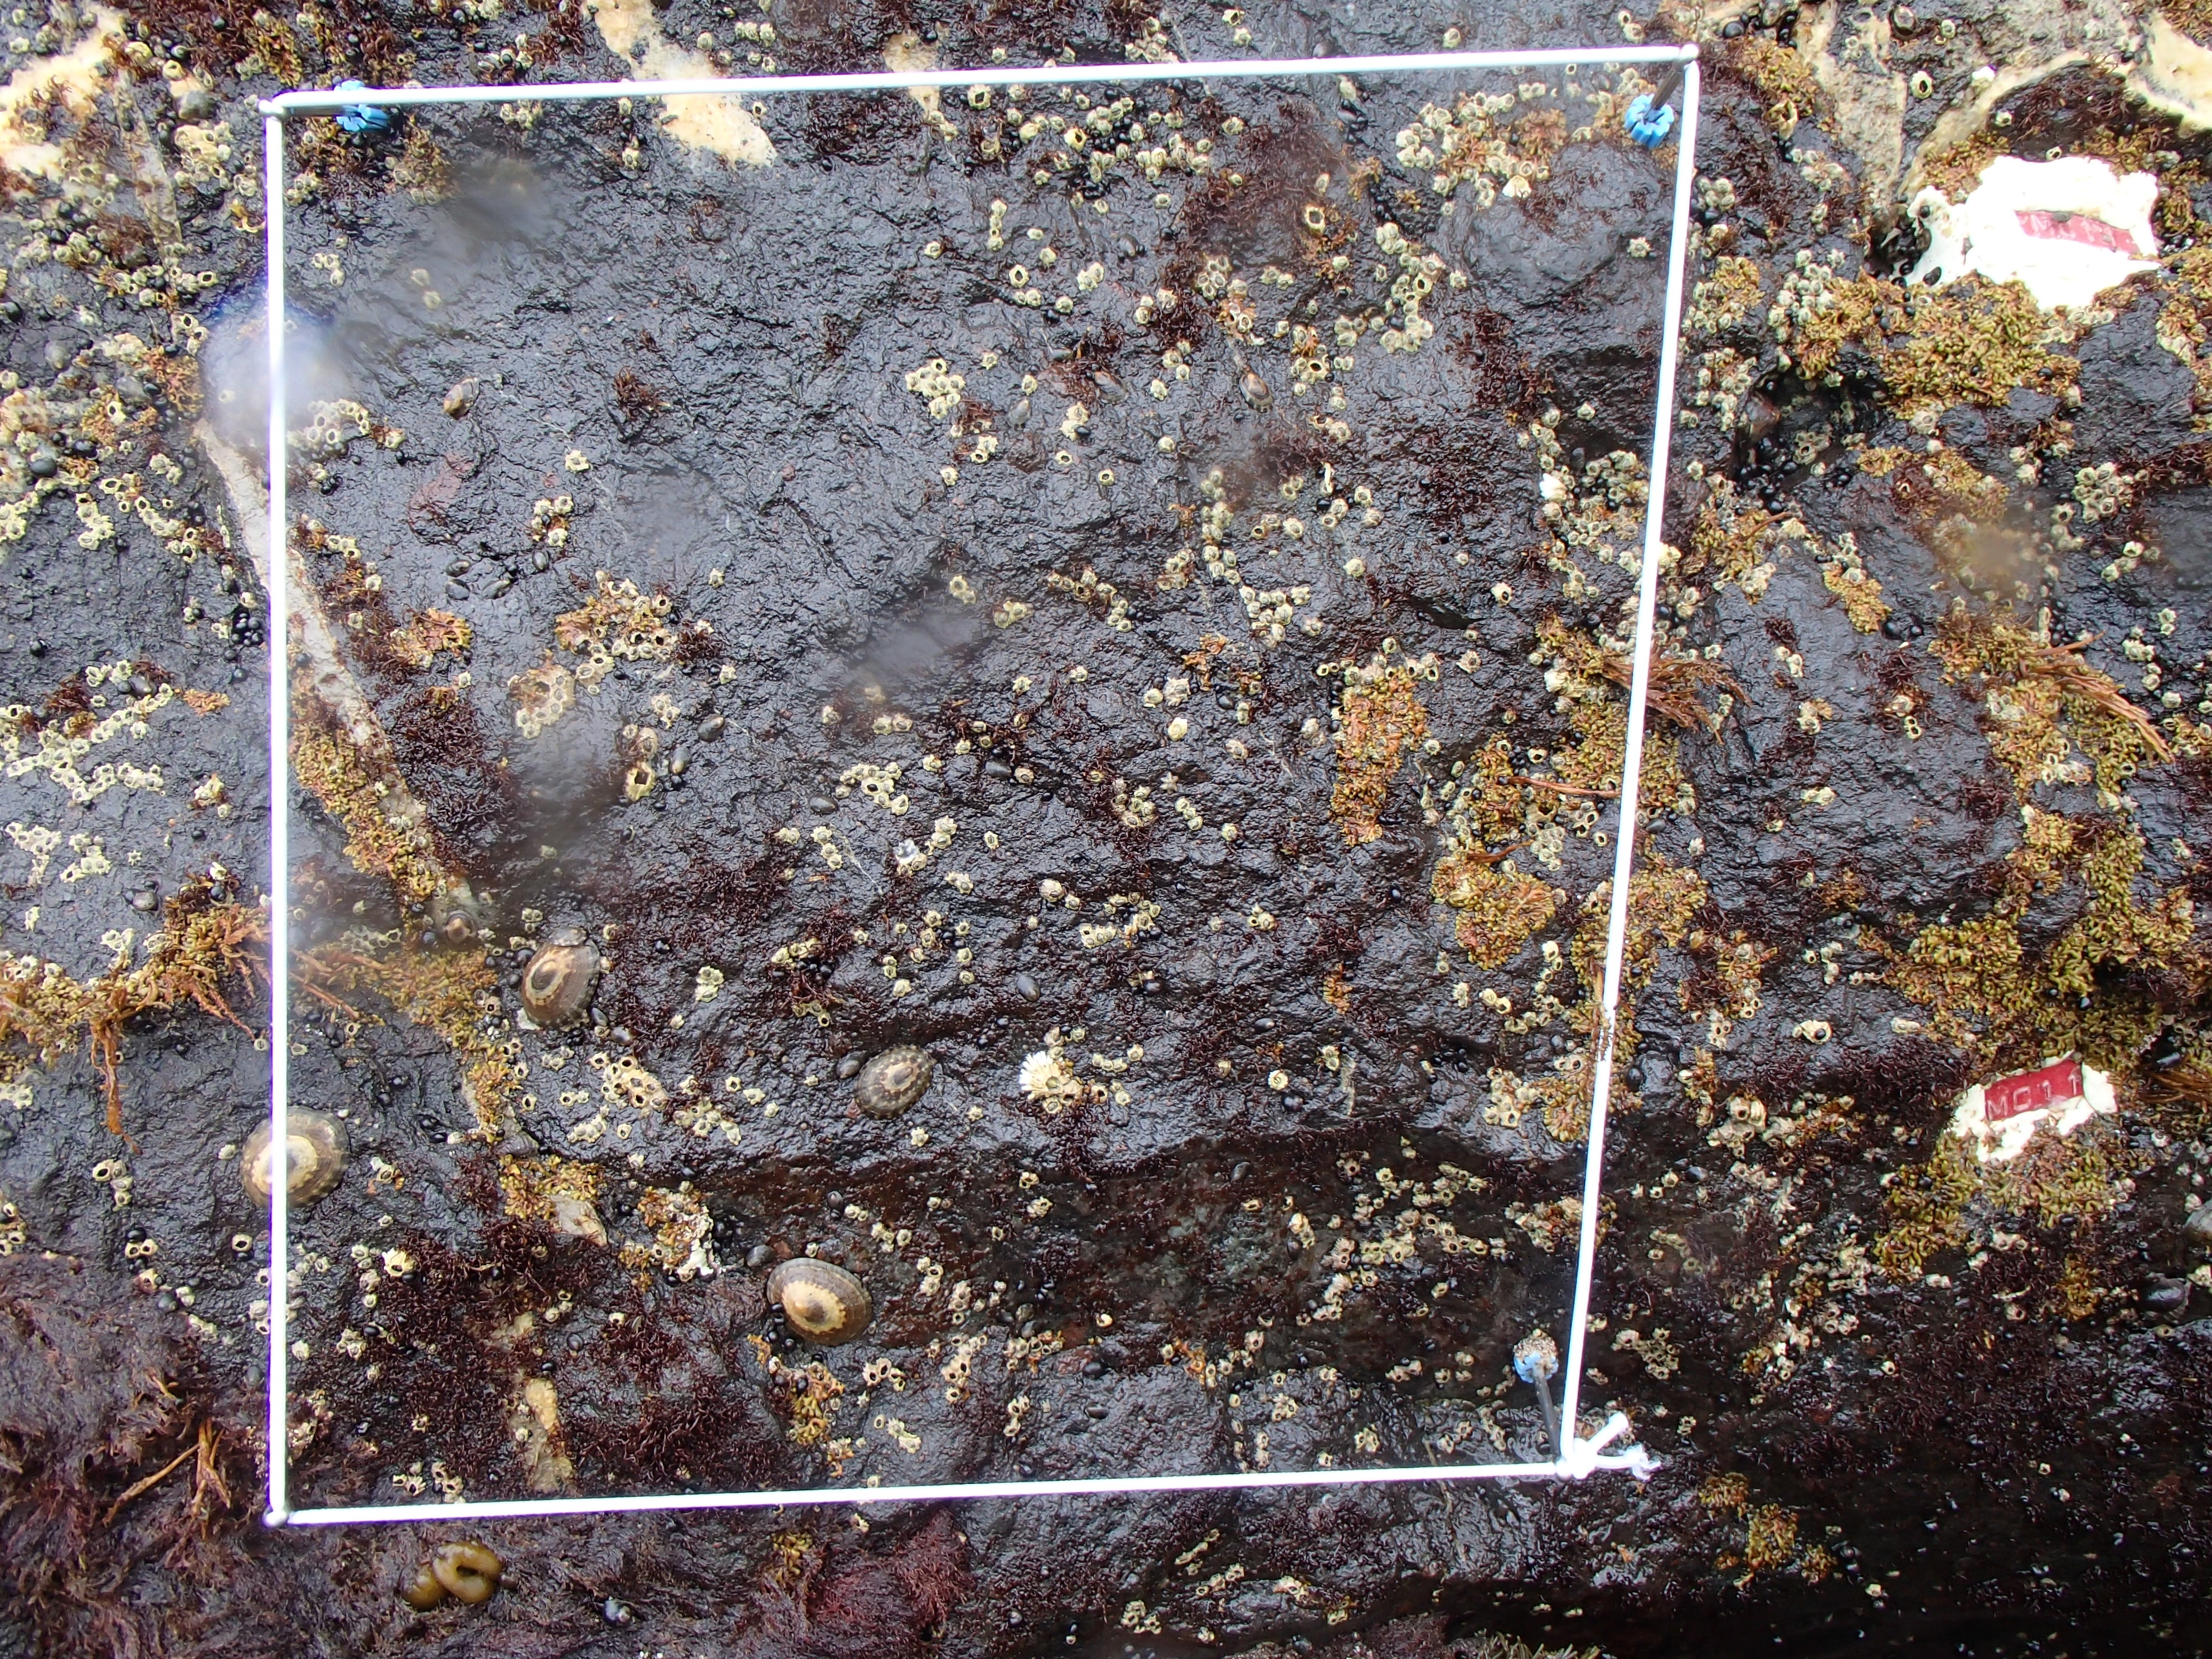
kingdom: Chromista
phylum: Ochrophyta
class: Phaeophyceae
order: Scytosiphonales
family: Scytosiphonaceae
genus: Analipus
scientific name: Analipus japonicus
